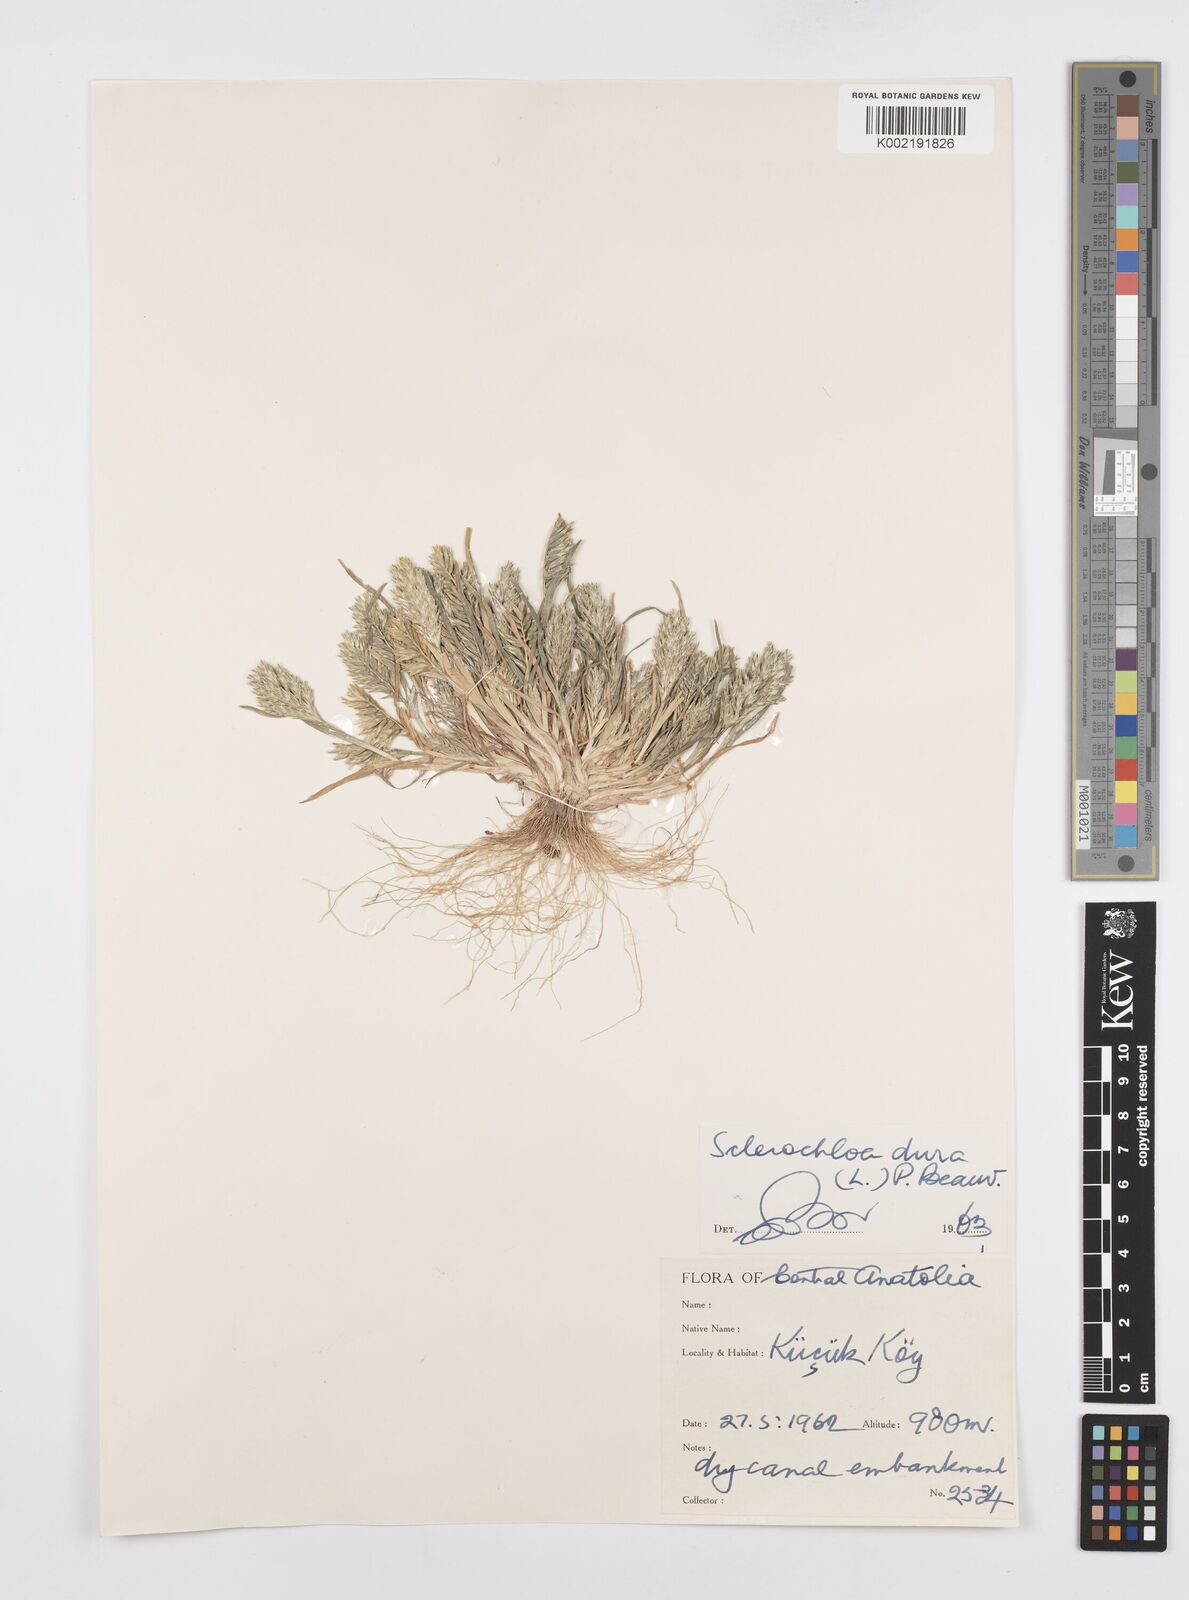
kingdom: Plantae
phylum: Tracheophyta
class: Liliopsida
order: Poales
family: Poaceae
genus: Sclerochloa
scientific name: Sclerochloa dura
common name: Common hardgrass
